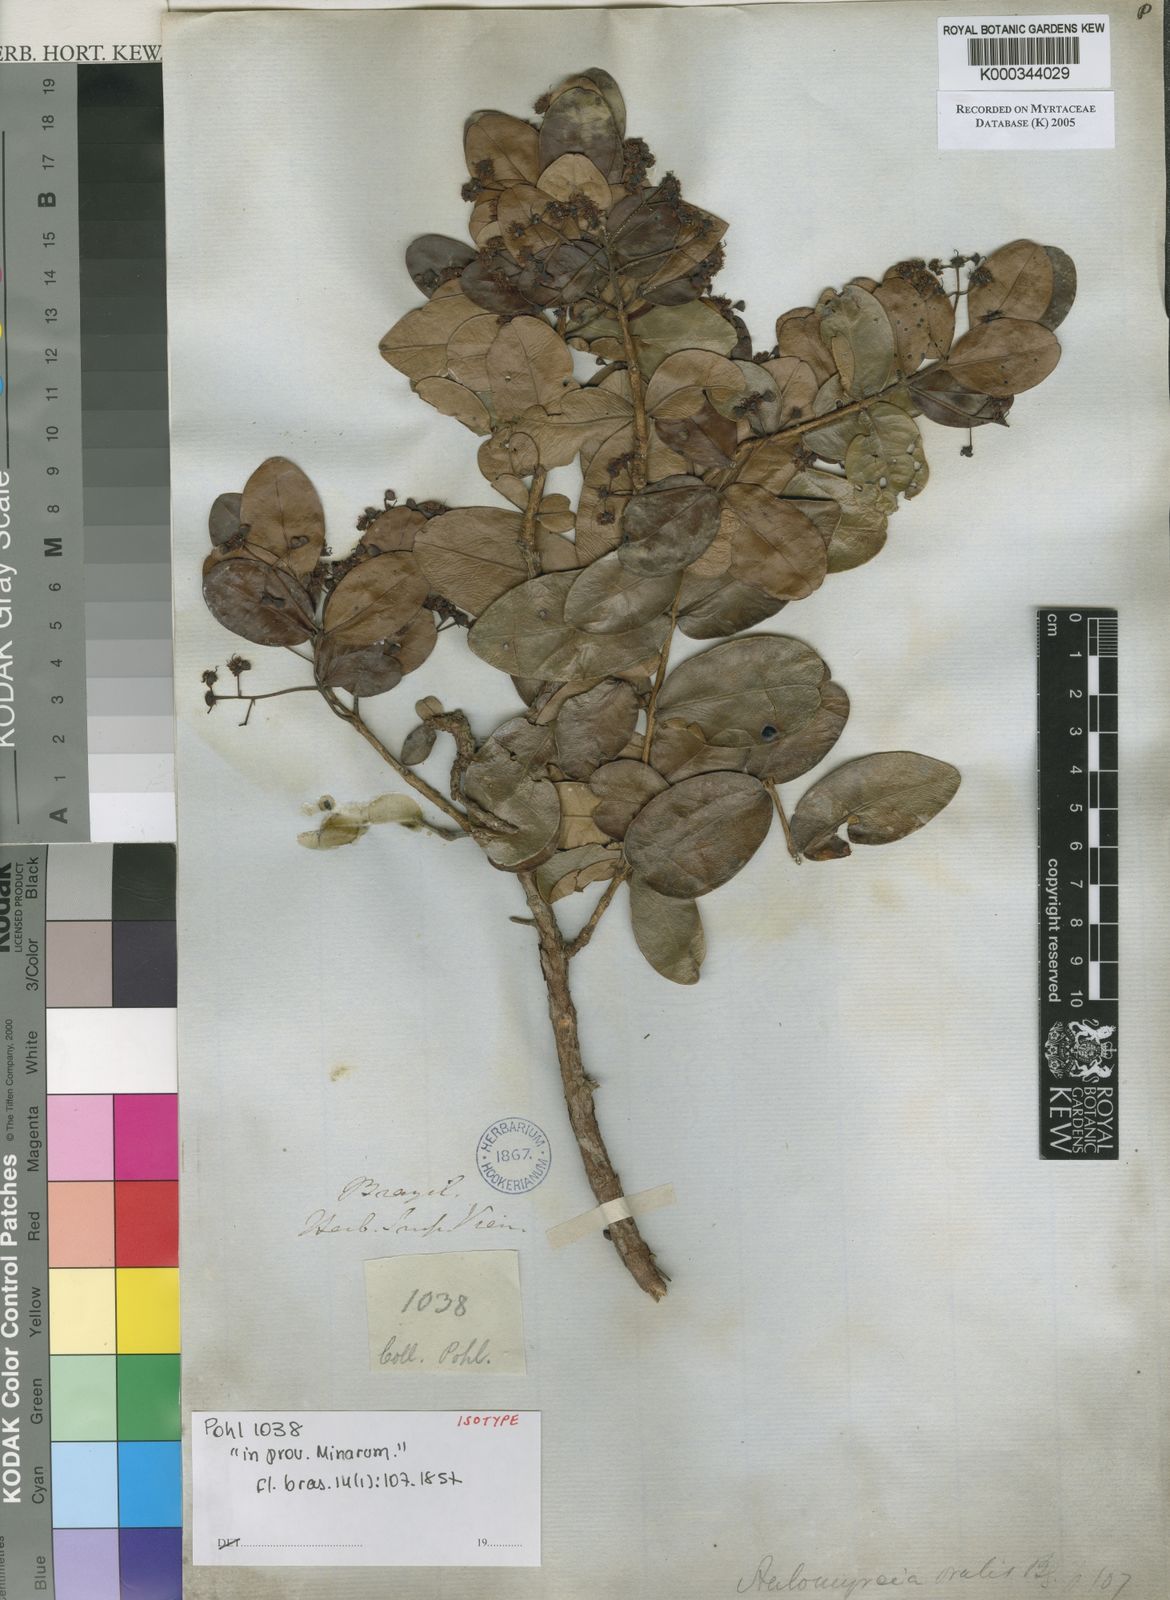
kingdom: Plantae
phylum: Tracheophyta
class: Magnoliopsida
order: Myrtales
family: Myrtaceae
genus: Myrcia
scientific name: Myrcia ovalis
